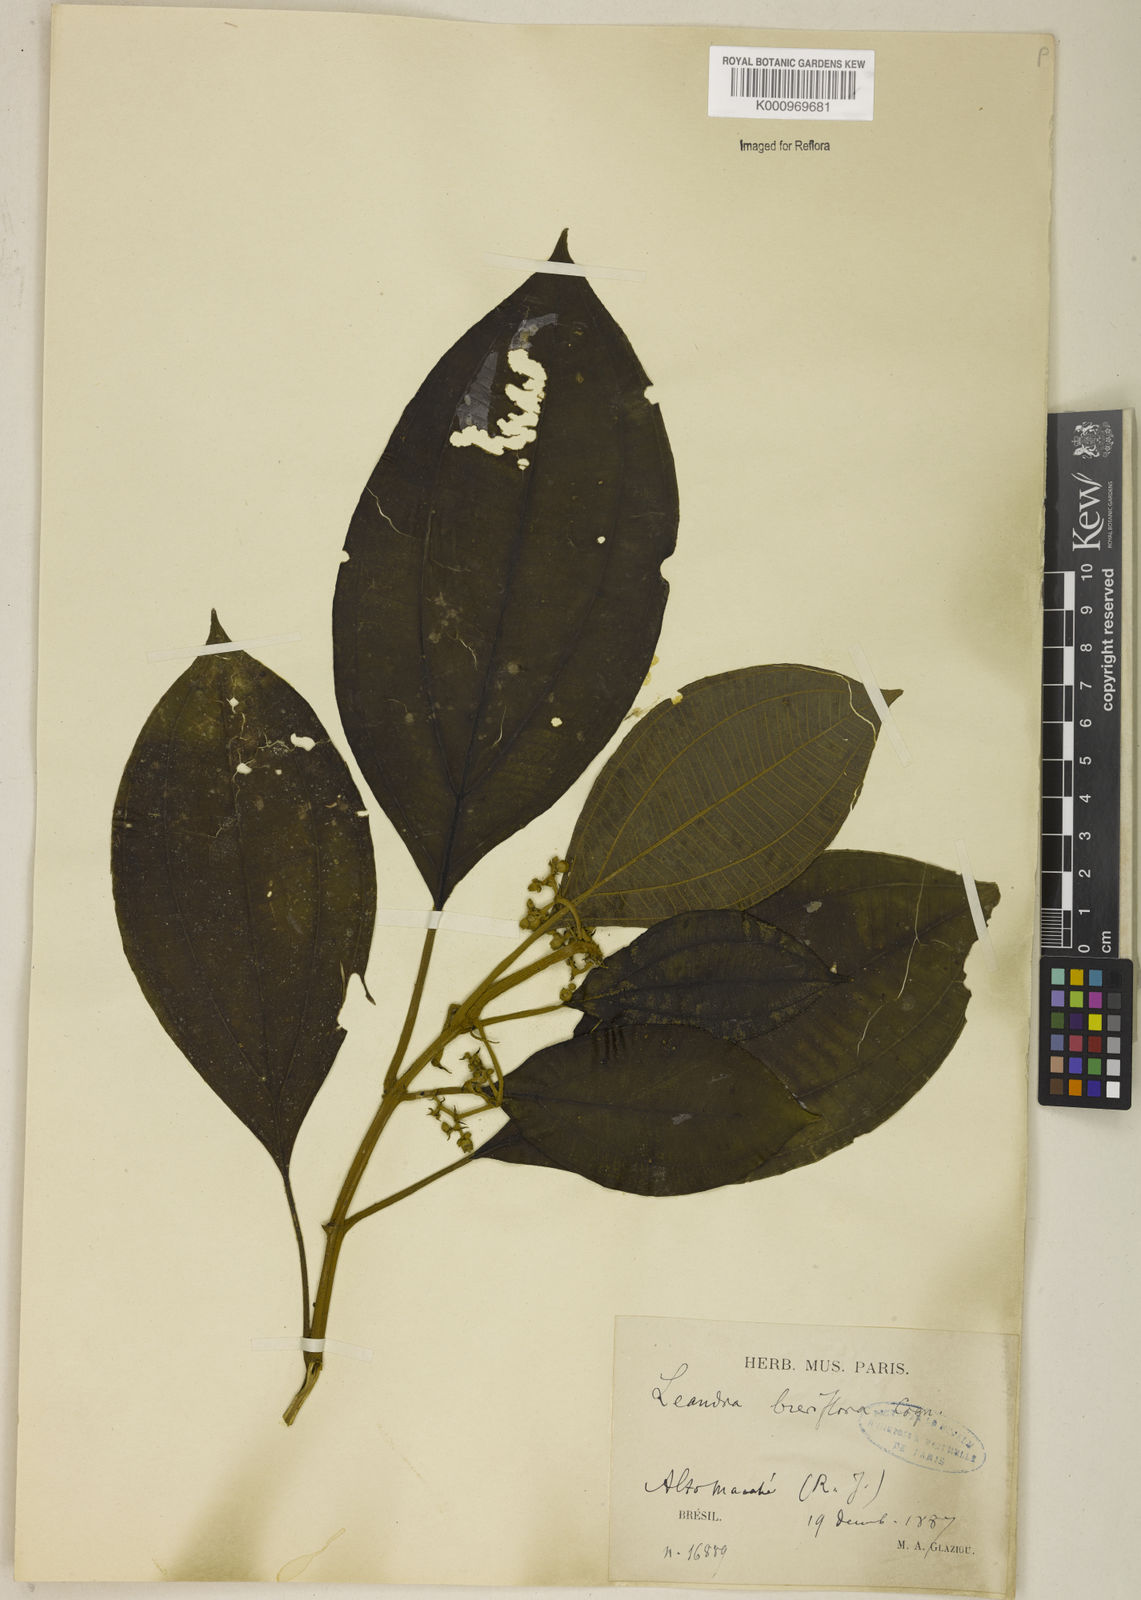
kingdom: Plantae
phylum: Tracheophyta
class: Magnoliopsida
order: Myrtales
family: Melastomataceae
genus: Miconia
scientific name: Miconia breviflora
